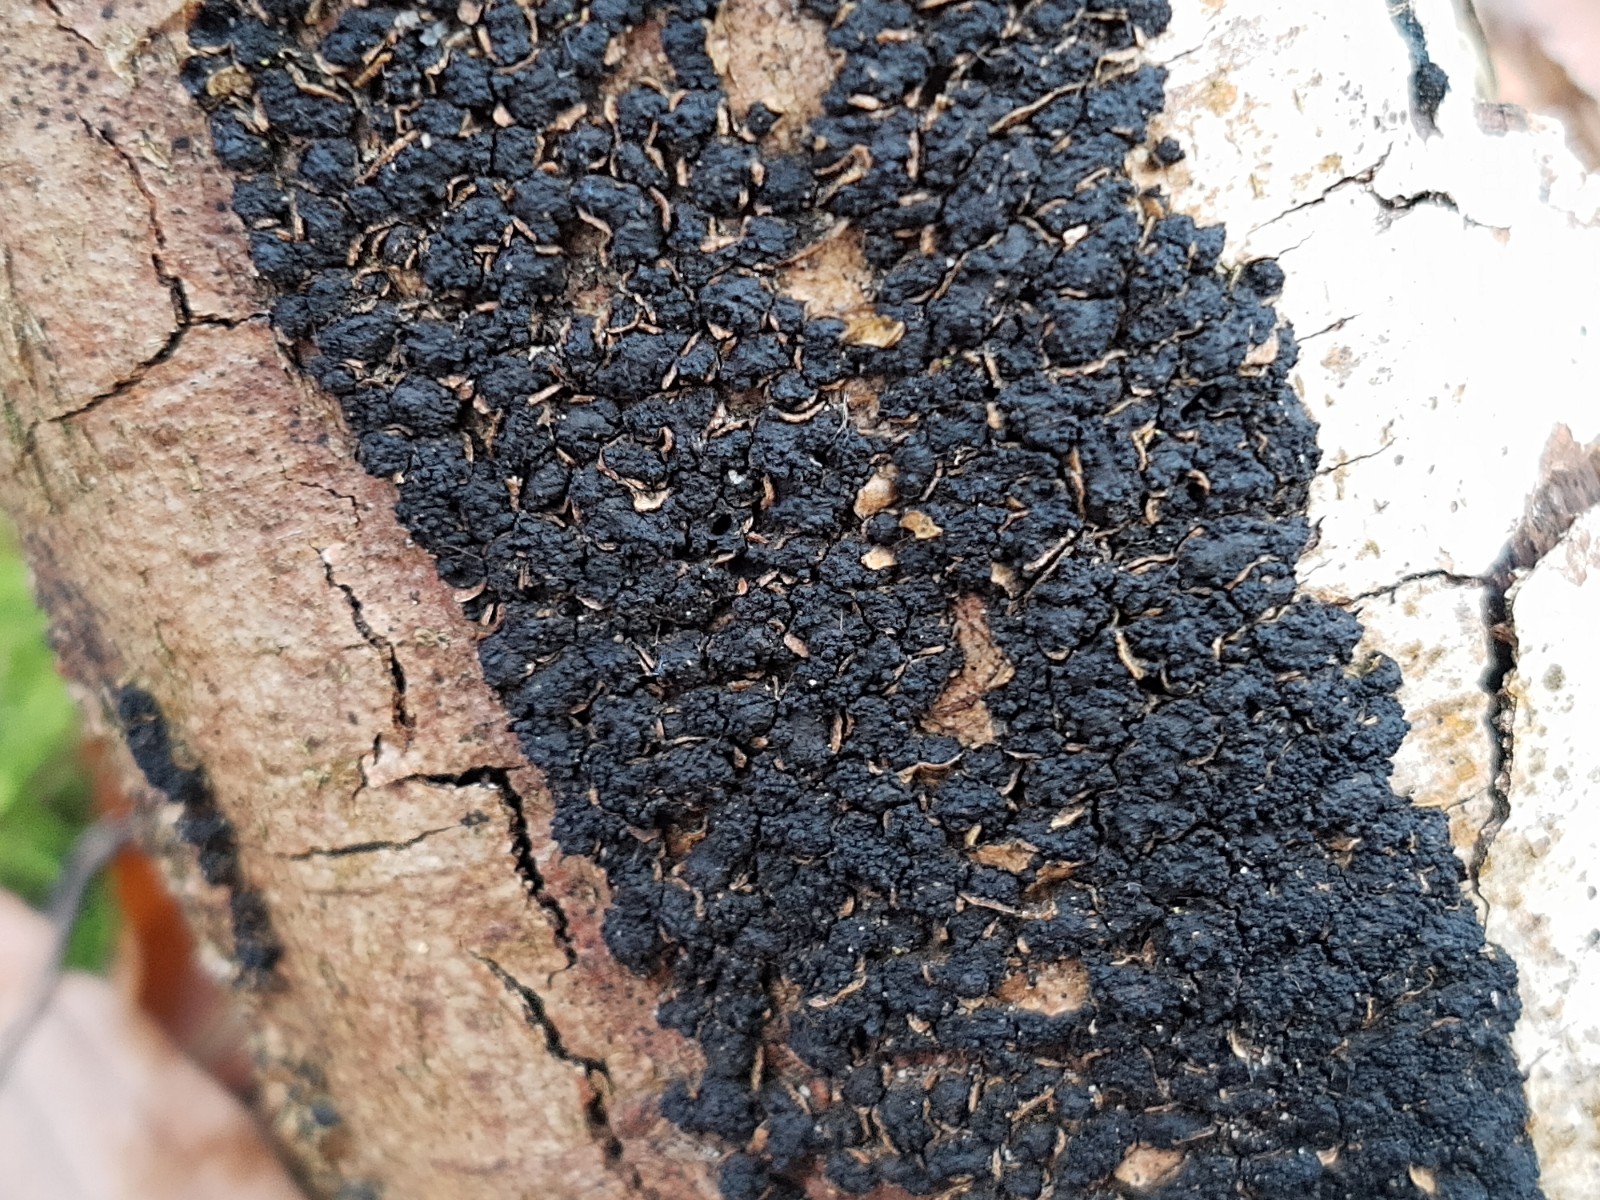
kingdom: Fungi
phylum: Ascomycota
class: Sordariomycetes
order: Xylariales
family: Melogrammataceae
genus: Melogramma
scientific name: Melogramma spiniferum
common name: bøgefod-kulhals
